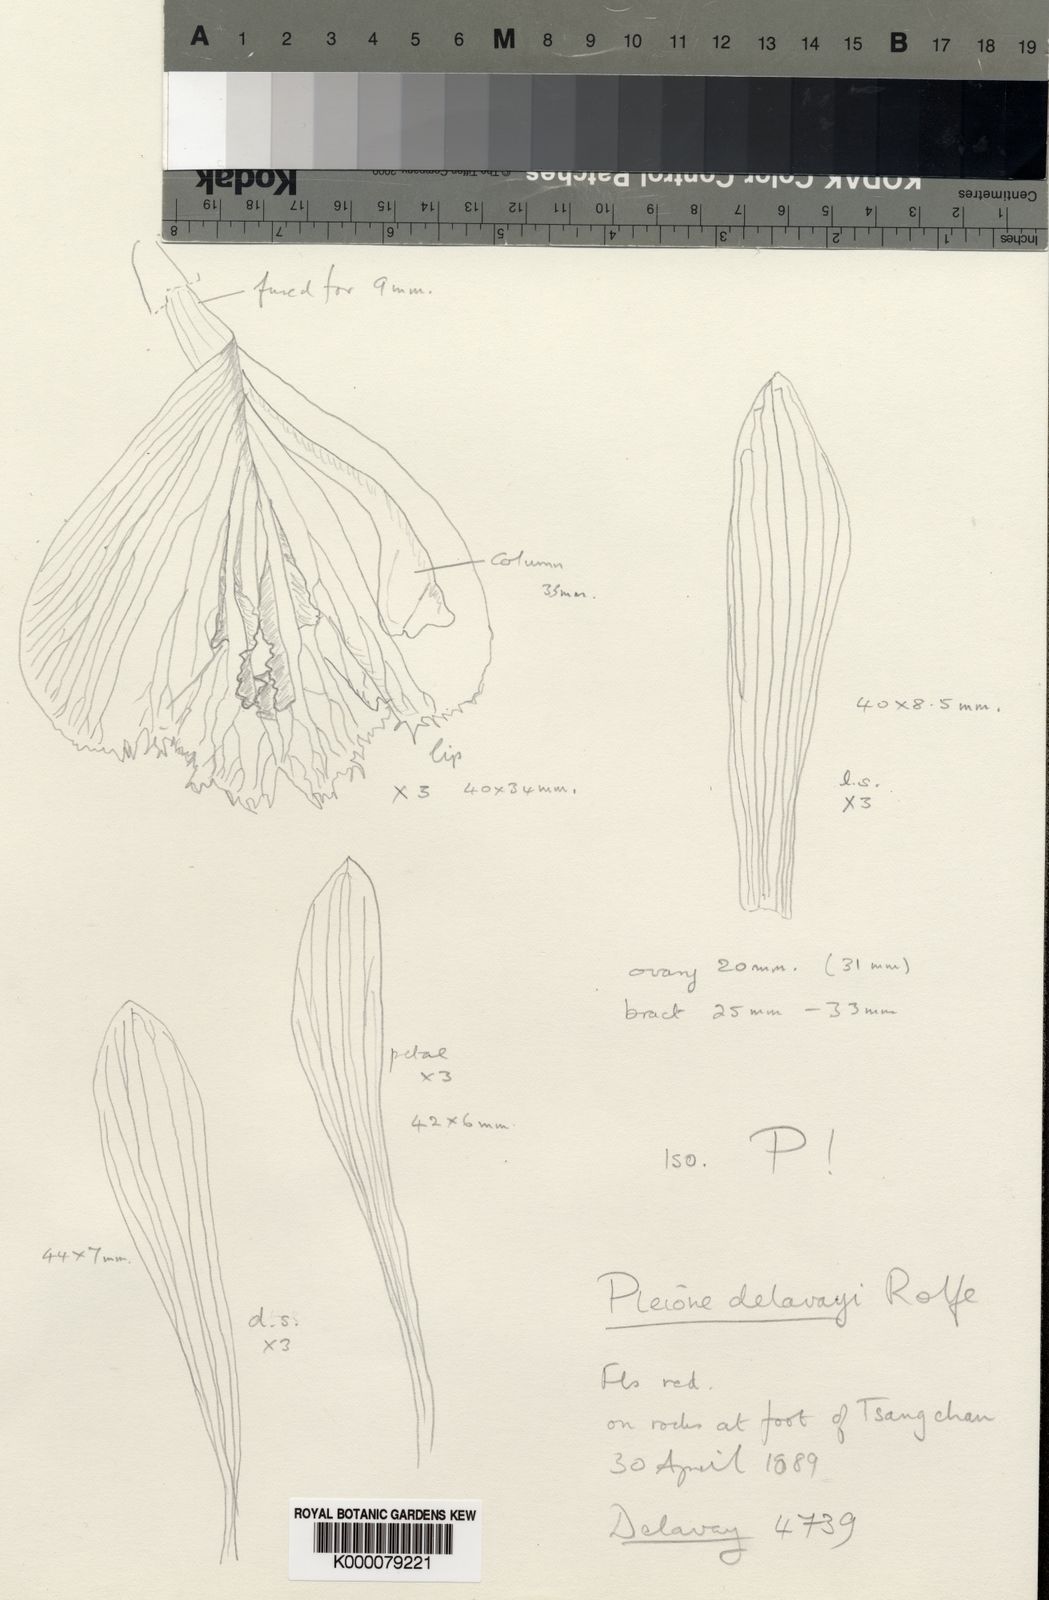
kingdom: Plantae
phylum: Tracheophyta
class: Liliopsida
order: Asparagales
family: Orchidaceae
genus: Pleione
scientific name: Pleione bulbocodioides
